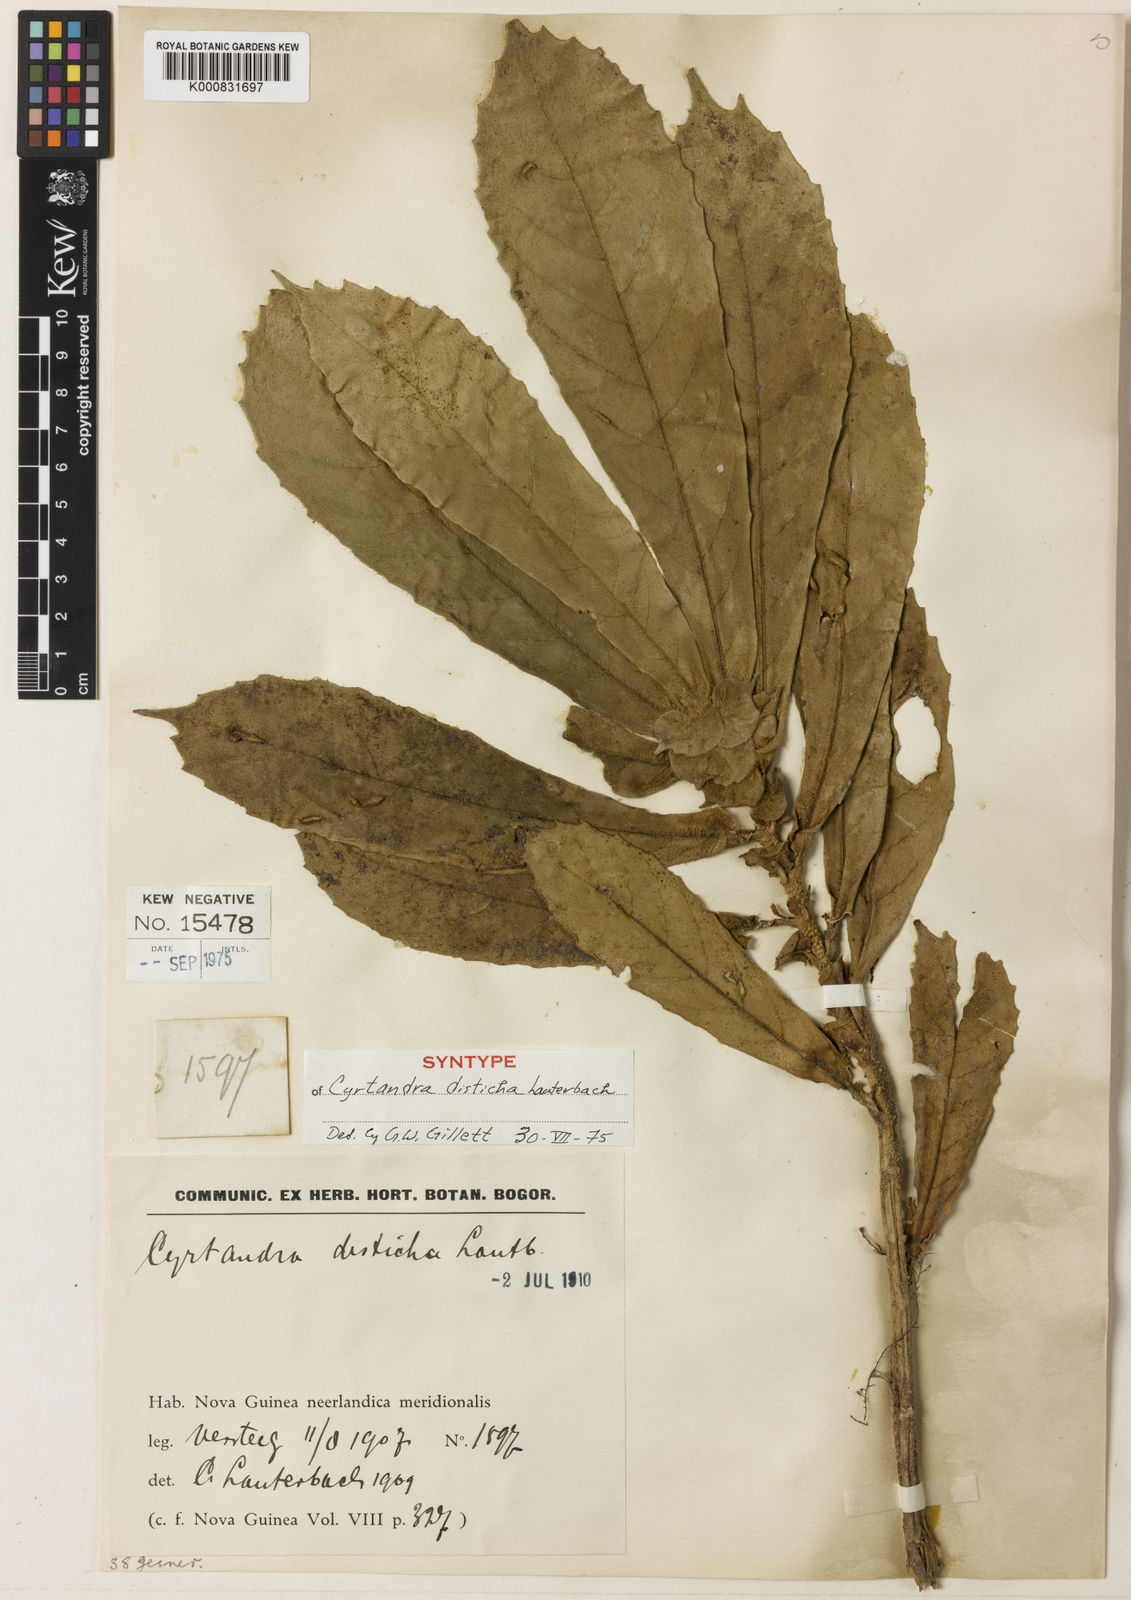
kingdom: Plantae
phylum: Tracheophyta
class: Magnoliopsida
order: Lamiales
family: Gesneriaceae
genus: Cyrtandra
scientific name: Cyrtandra disticha
